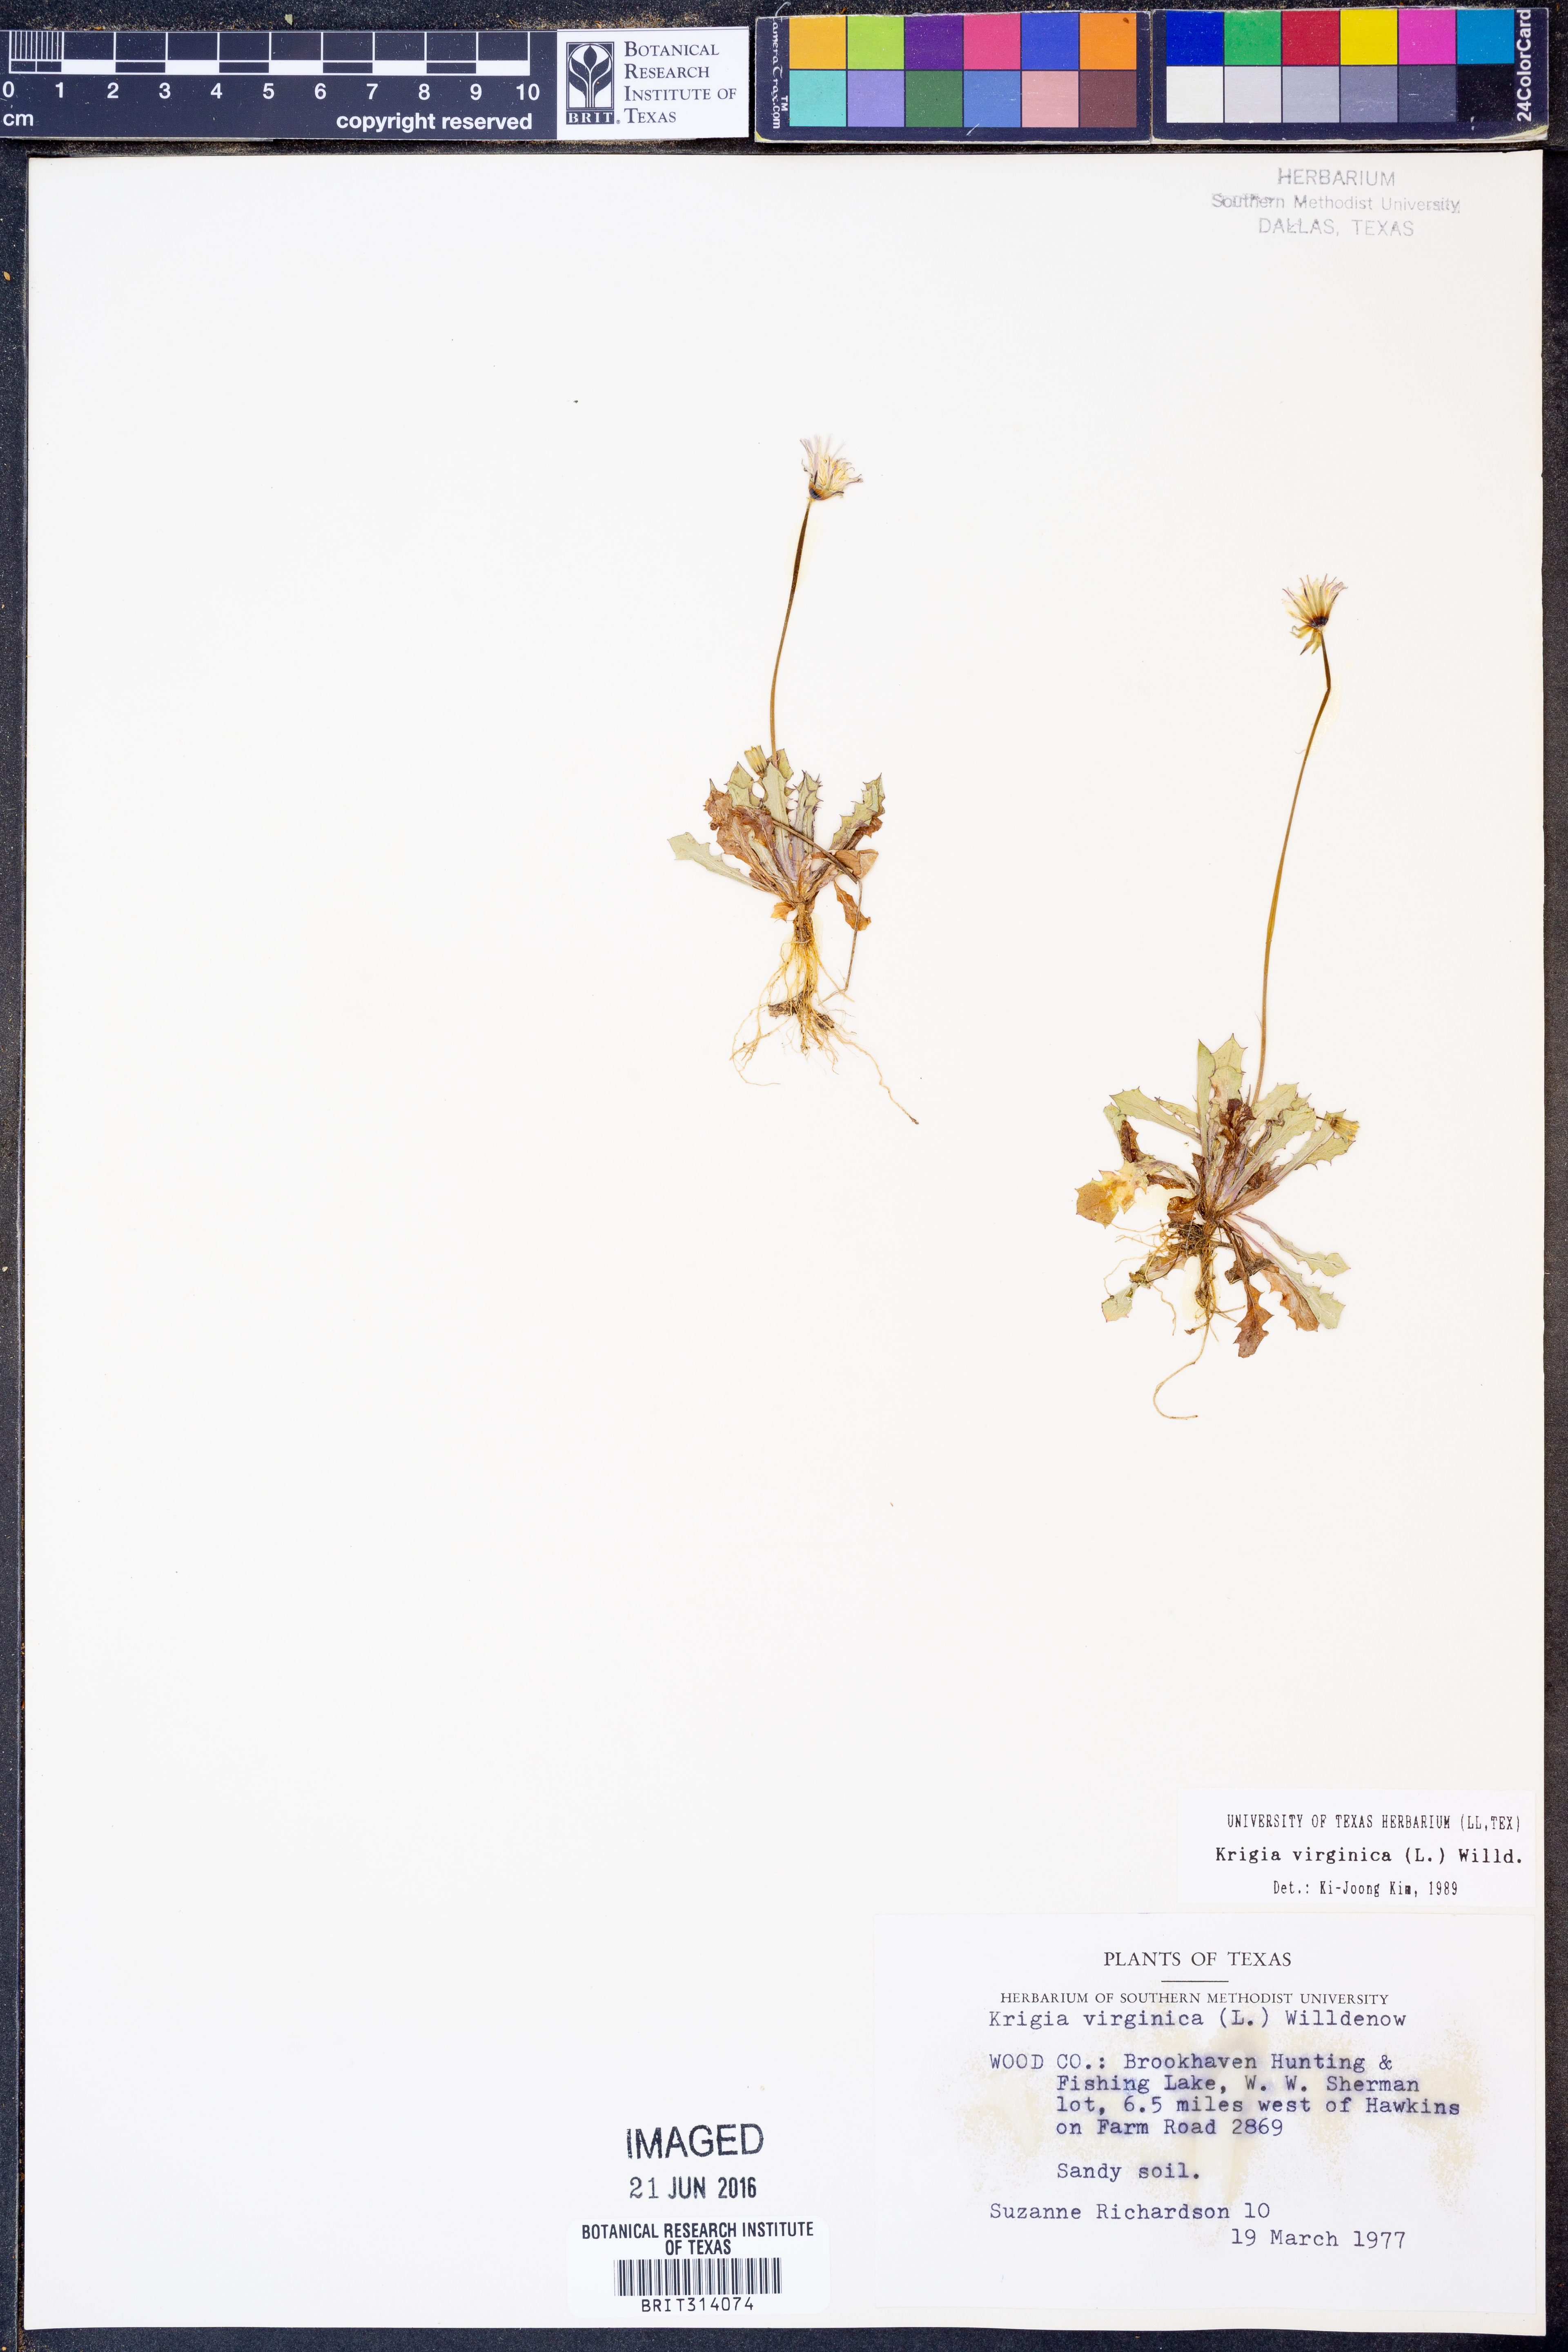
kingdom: Plantae
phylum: Tracheophyta
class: Magnoliopsida
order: Asterales
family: Asteraceae
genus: Krigia
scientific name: Krigia virginica
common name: Virginia dwarf-dandelion
